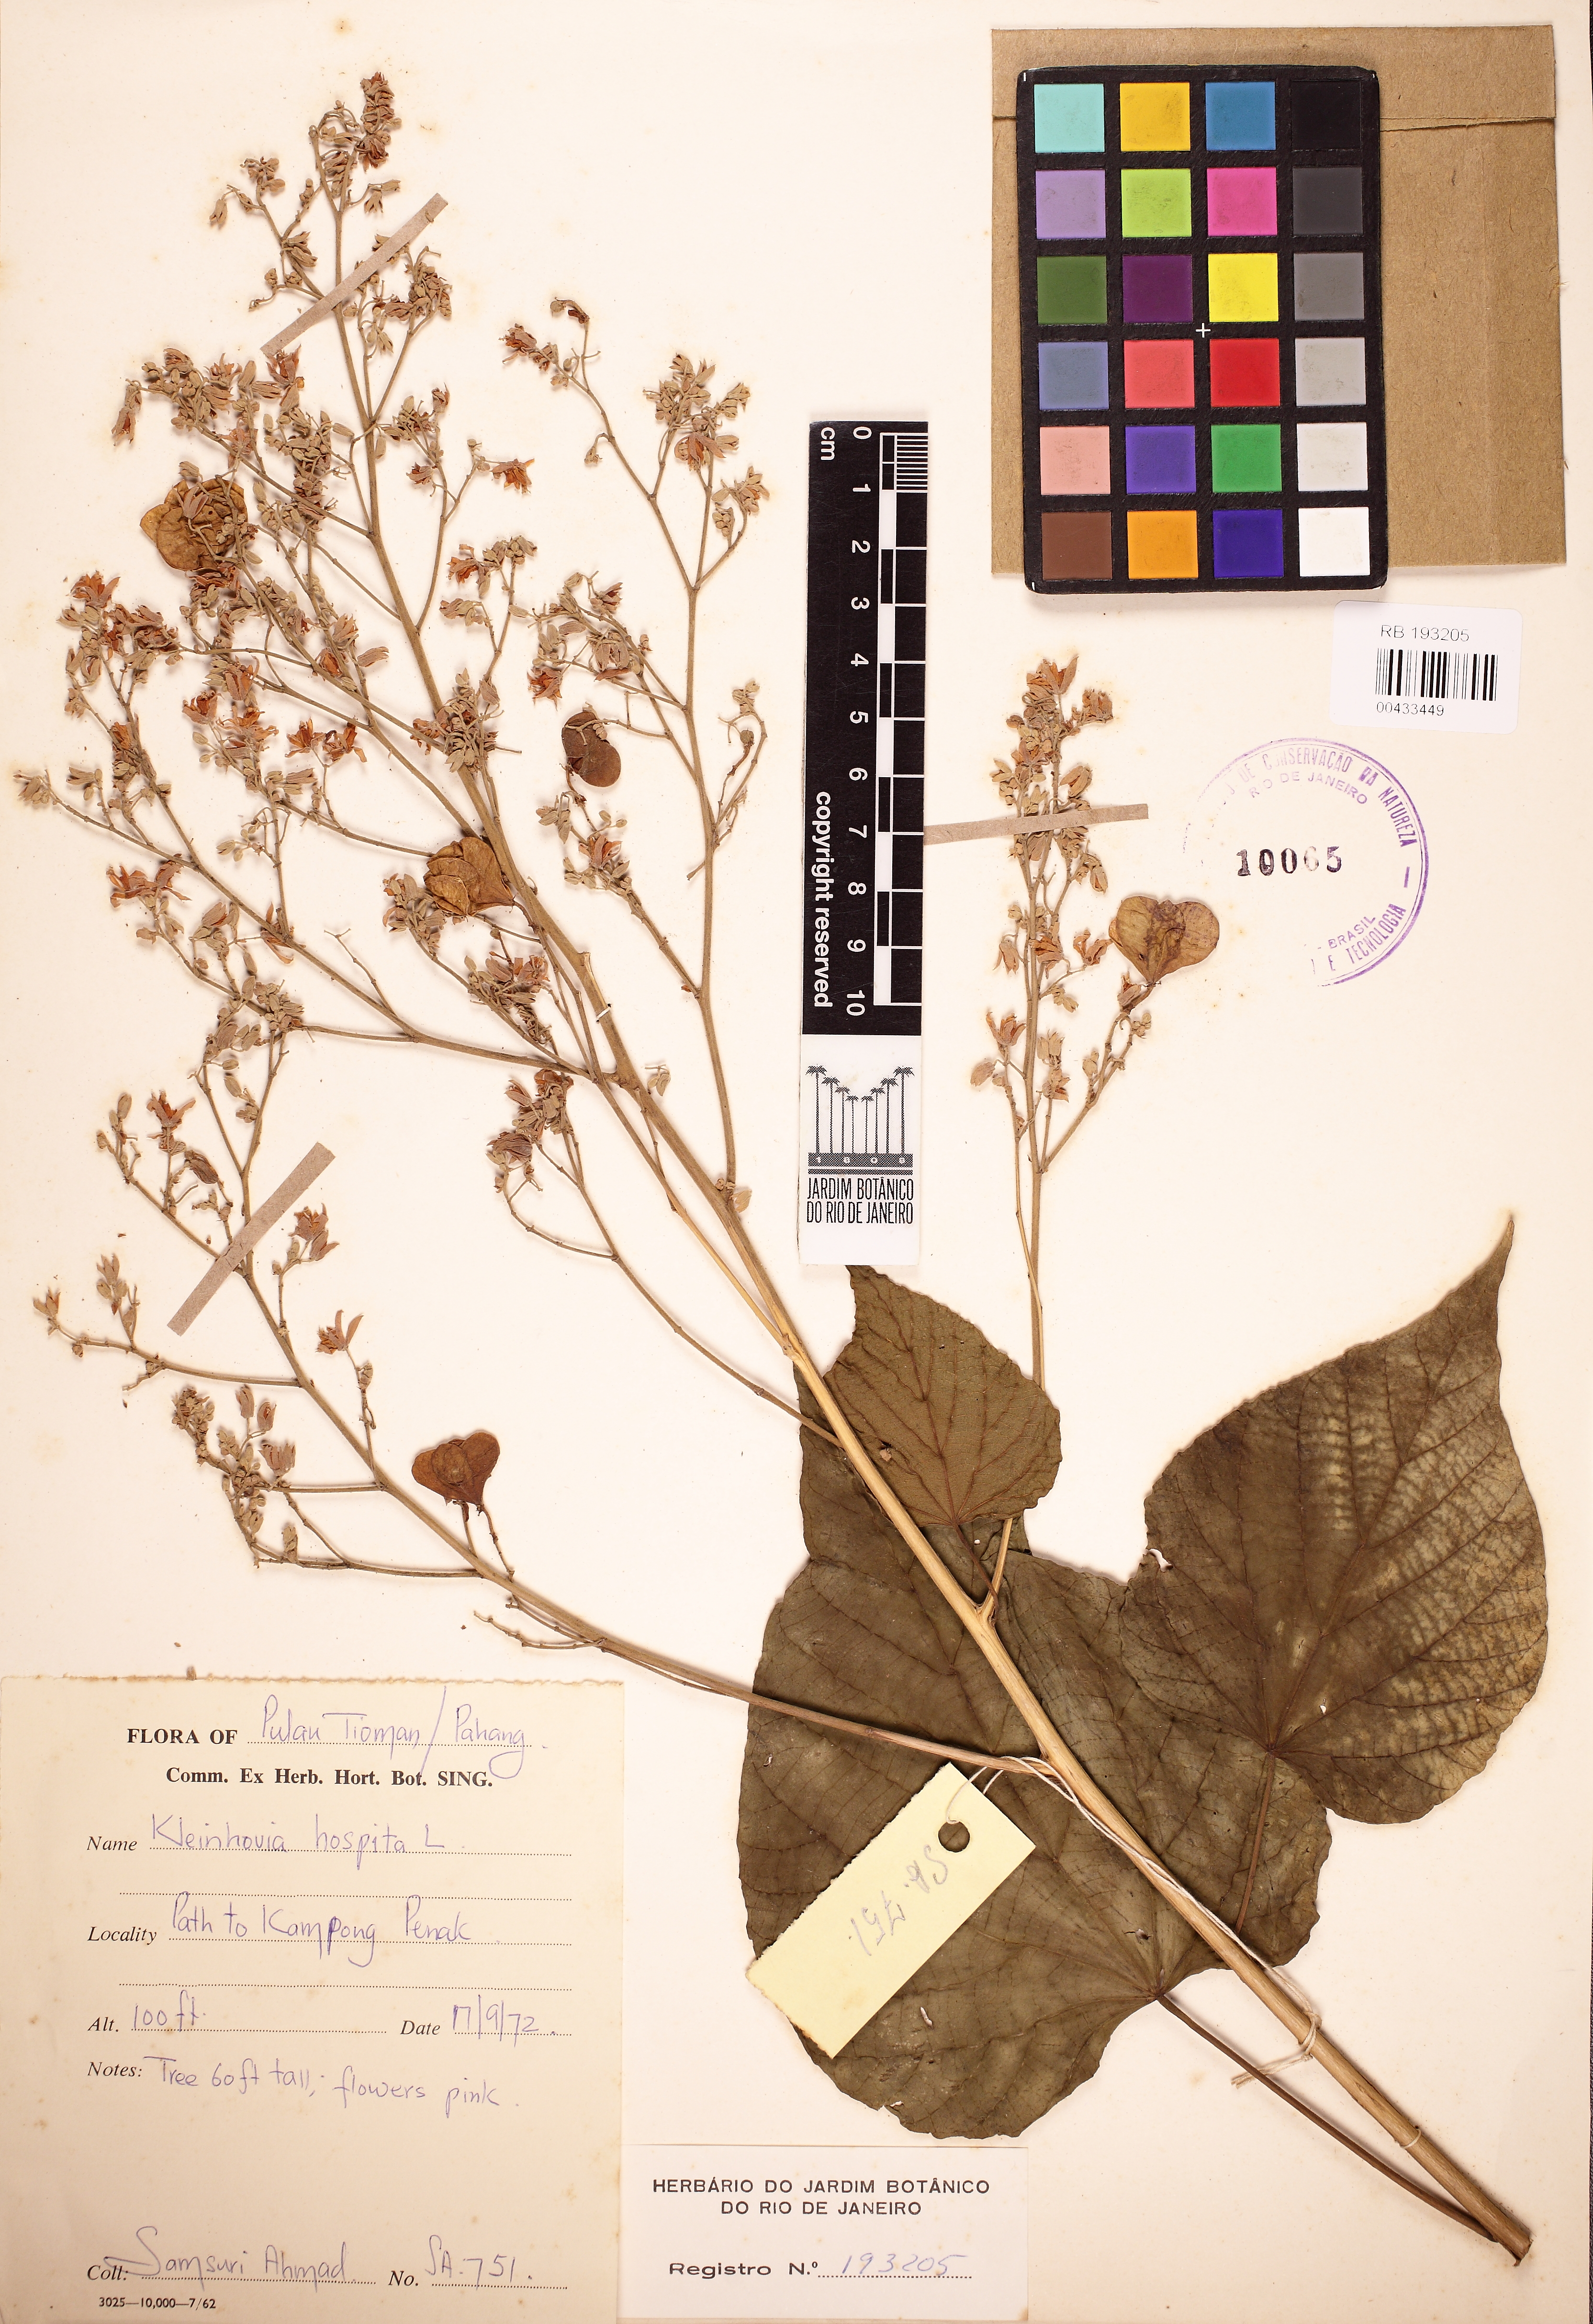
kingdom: Plantae
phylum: Tracheophyta
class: Magnoliopsida
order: Malvales
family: Malvaceae
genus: Kleinhovia
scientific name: Kleinhovia hospita
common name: Guest-tree
